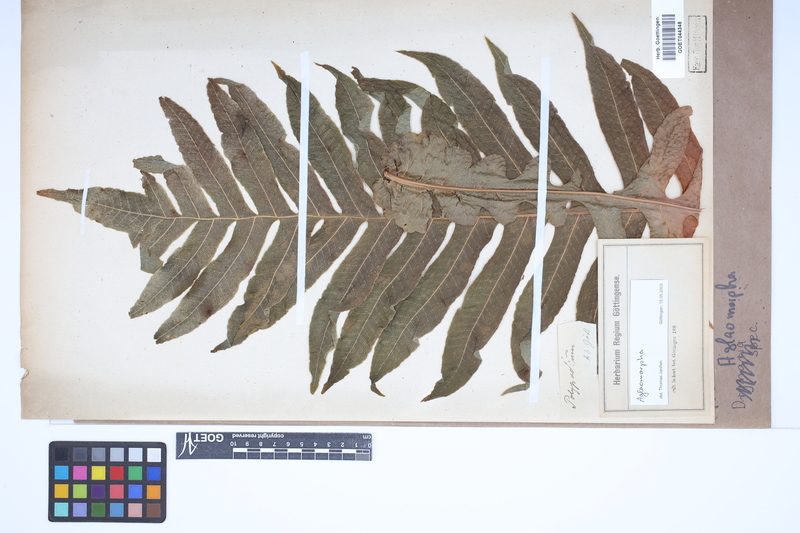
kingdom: Animalia
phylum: Arthropoda
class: Insecta
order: Lepidoptera
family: Erebidae
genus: Aglaomorpha
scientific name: Aglaomorpha
